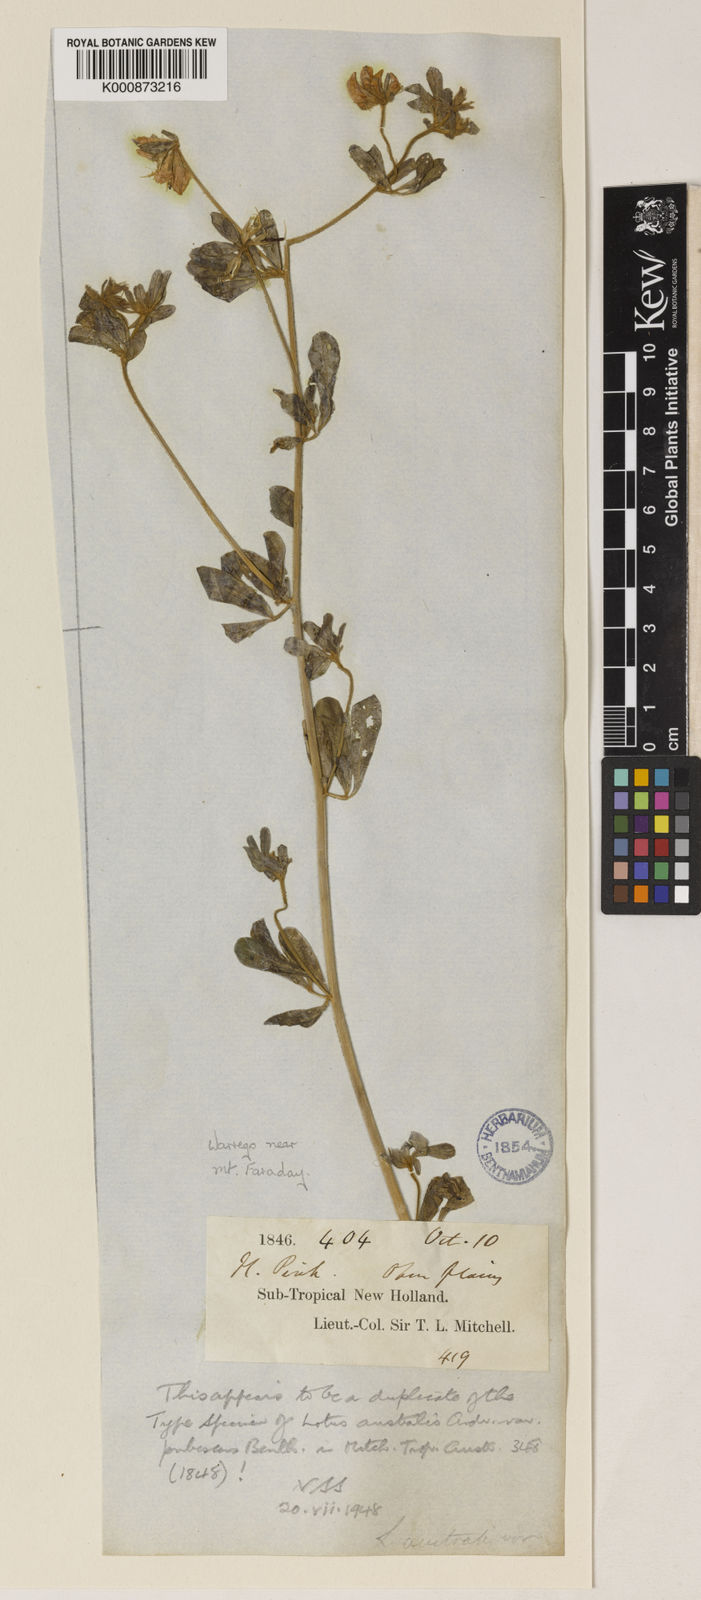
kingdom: Plantae
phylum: Tracheophyta
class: Magnoliopsida
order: Fabales
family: Fabaceae
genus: Lotus
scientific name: Lotus australis
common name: Australian trefoil
